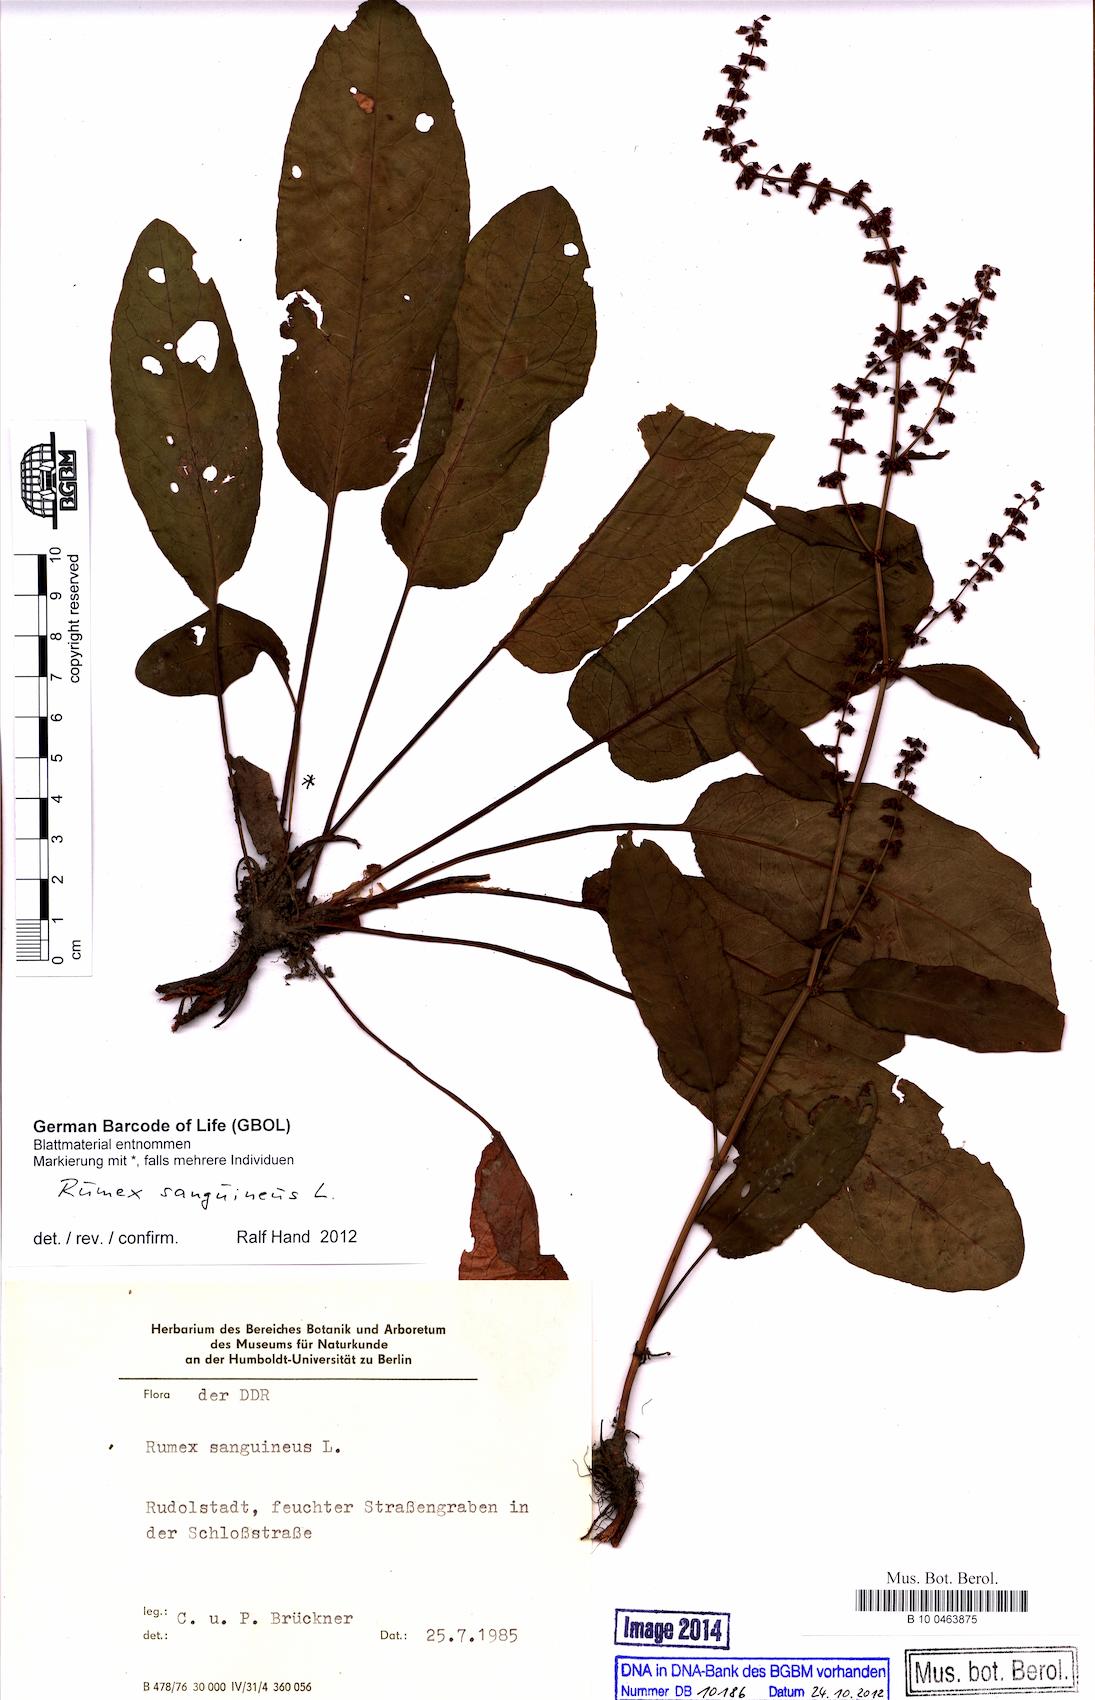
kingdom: Plantae
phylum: Tracheophyta
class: Magnoliopsida
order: Caryophyllales
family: Polygonaceae
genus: Rumex
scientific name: Rumex sanguineus
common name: Wood dock
